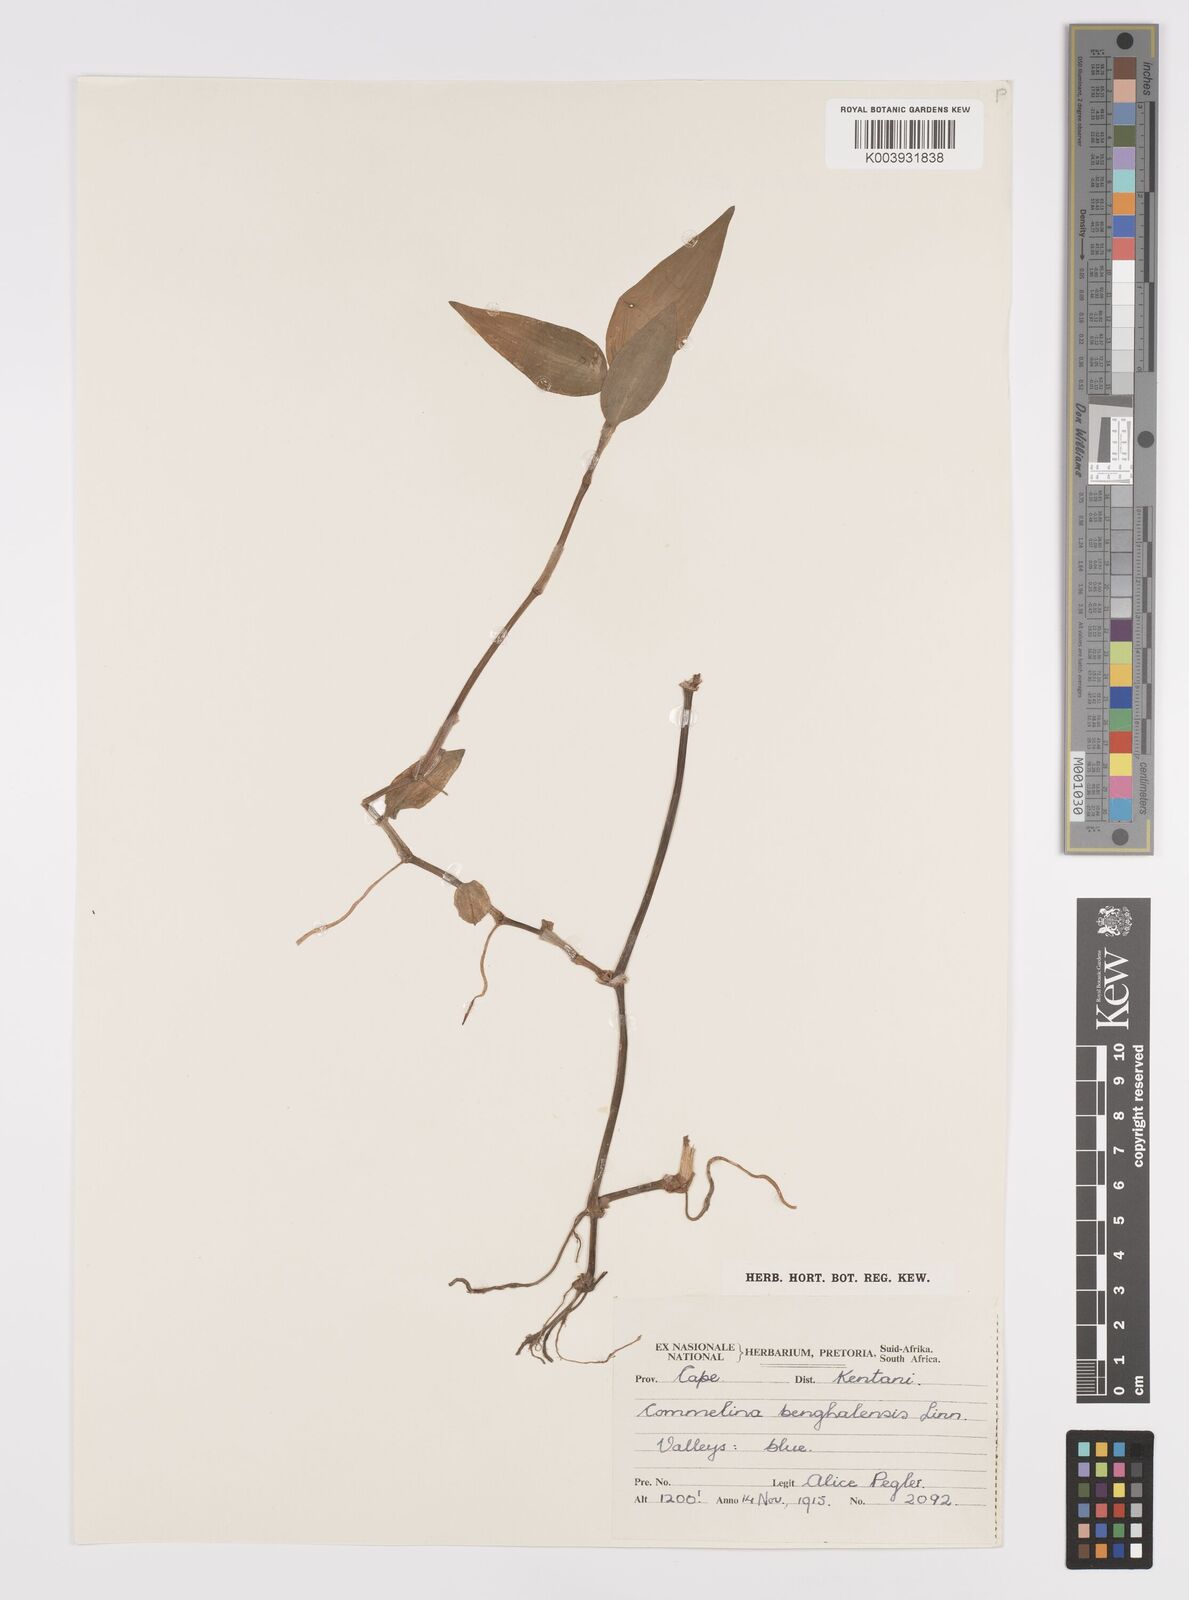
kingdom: Plantae
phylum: Tracheophyta
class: Liliopsida
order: Commelinales
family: Commelinaceae
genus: Commelina
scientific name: Commelina benghalensis
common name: Jio
